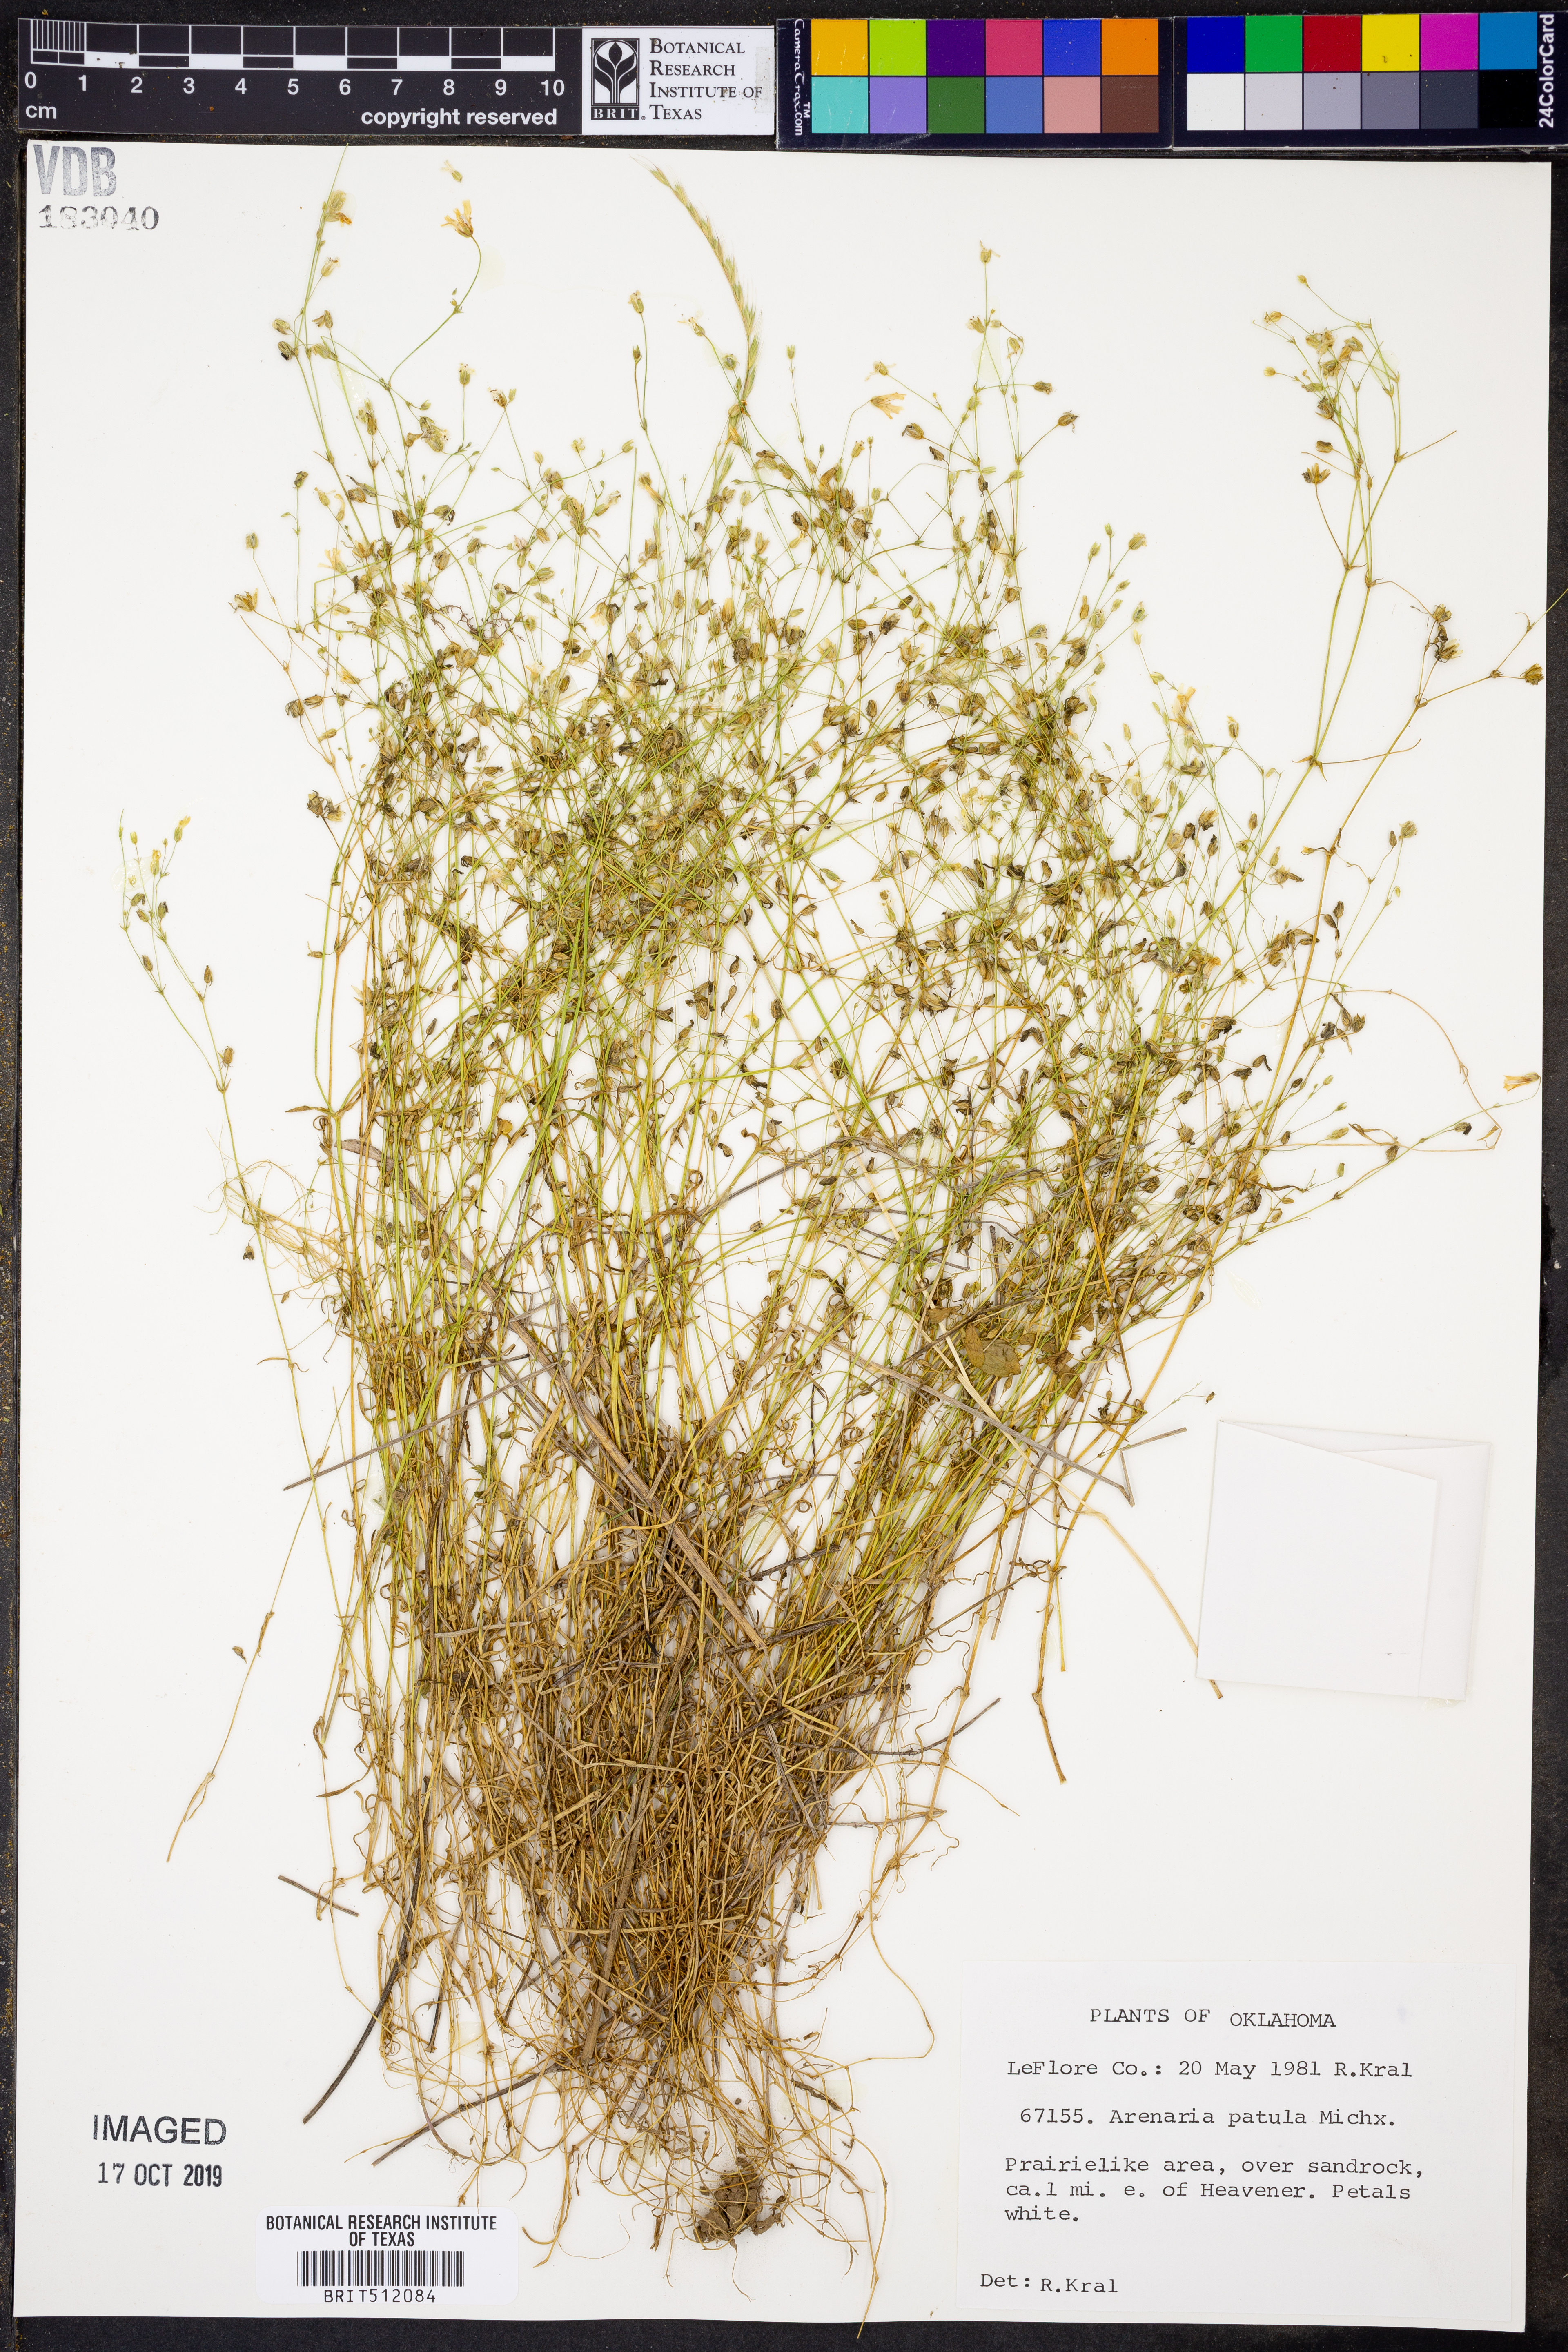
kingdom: Plantae
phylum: Tracheophyta
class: Magnoliopsida
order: Caryophyllales
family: Caryophyllaceae
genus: Mononeuria
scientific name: Mononeuria patula
